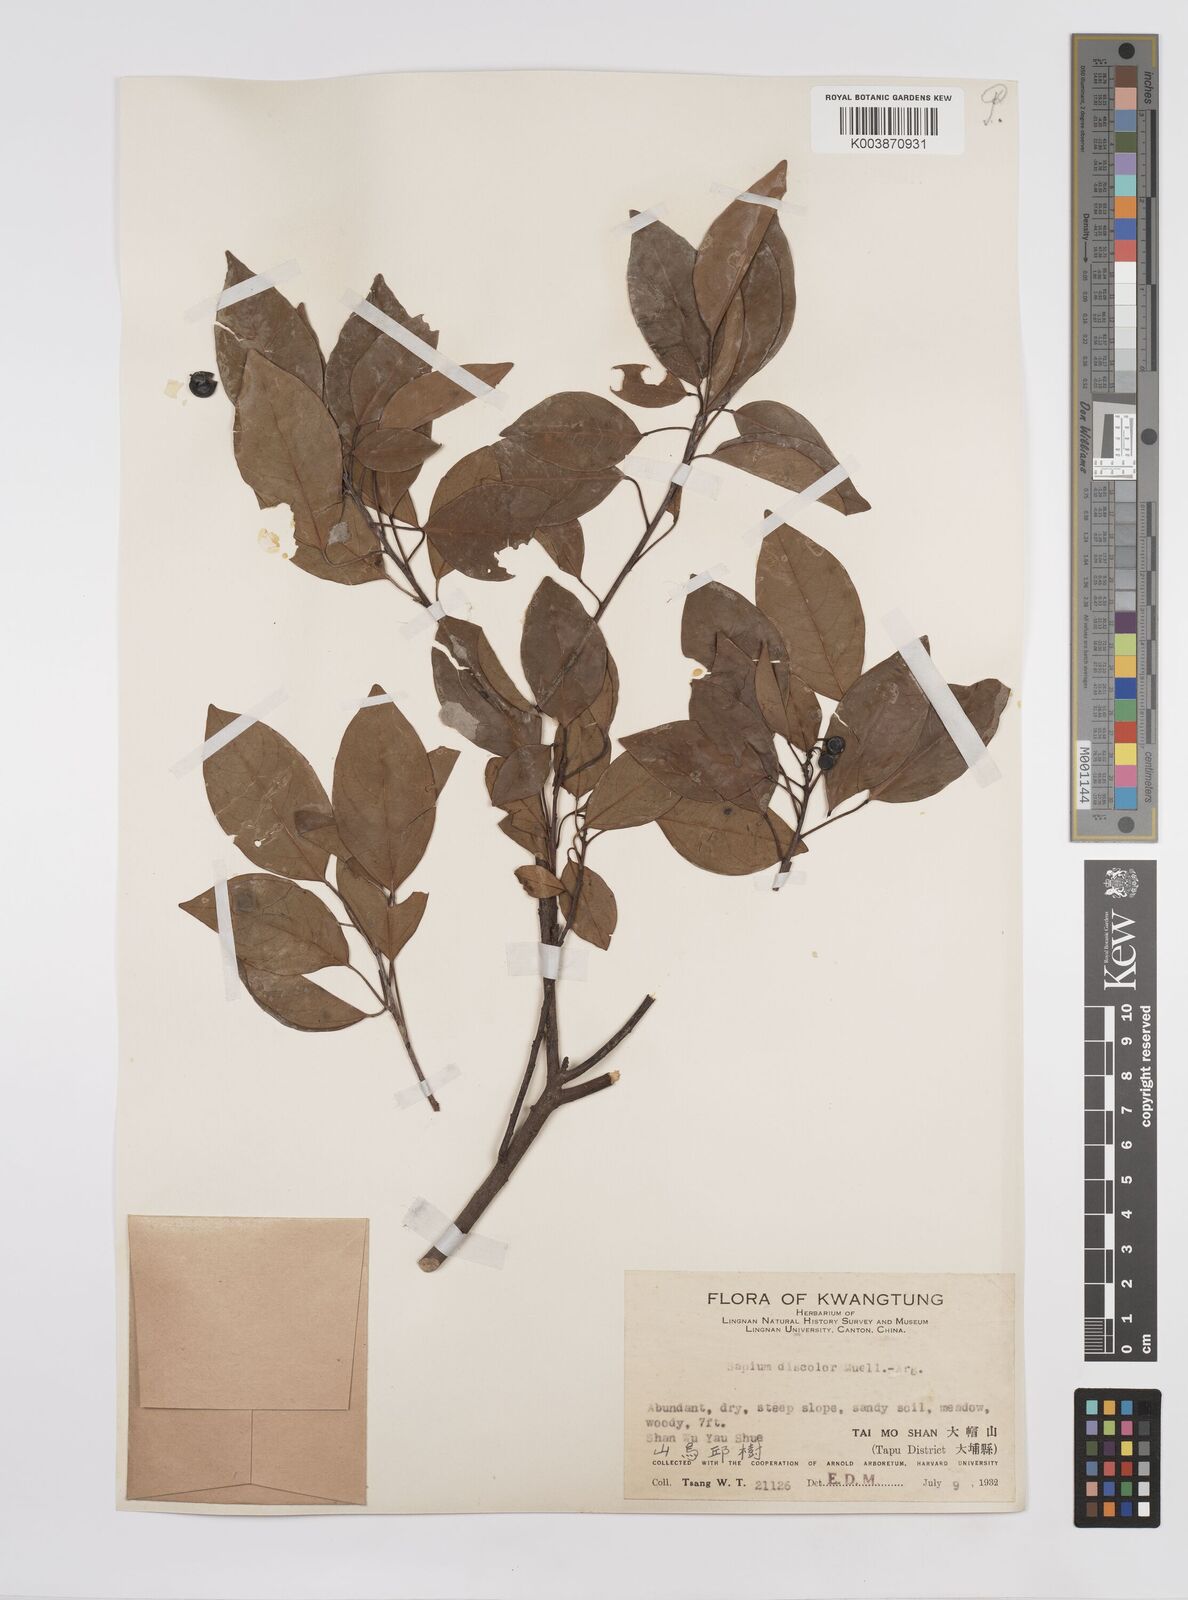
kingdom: Plantae
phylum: Tracheophyta
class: Magnoliopsida
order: Malpighiales
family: Euphorbiaceae
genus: Triadica
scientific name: Triadica cochinchinensis
